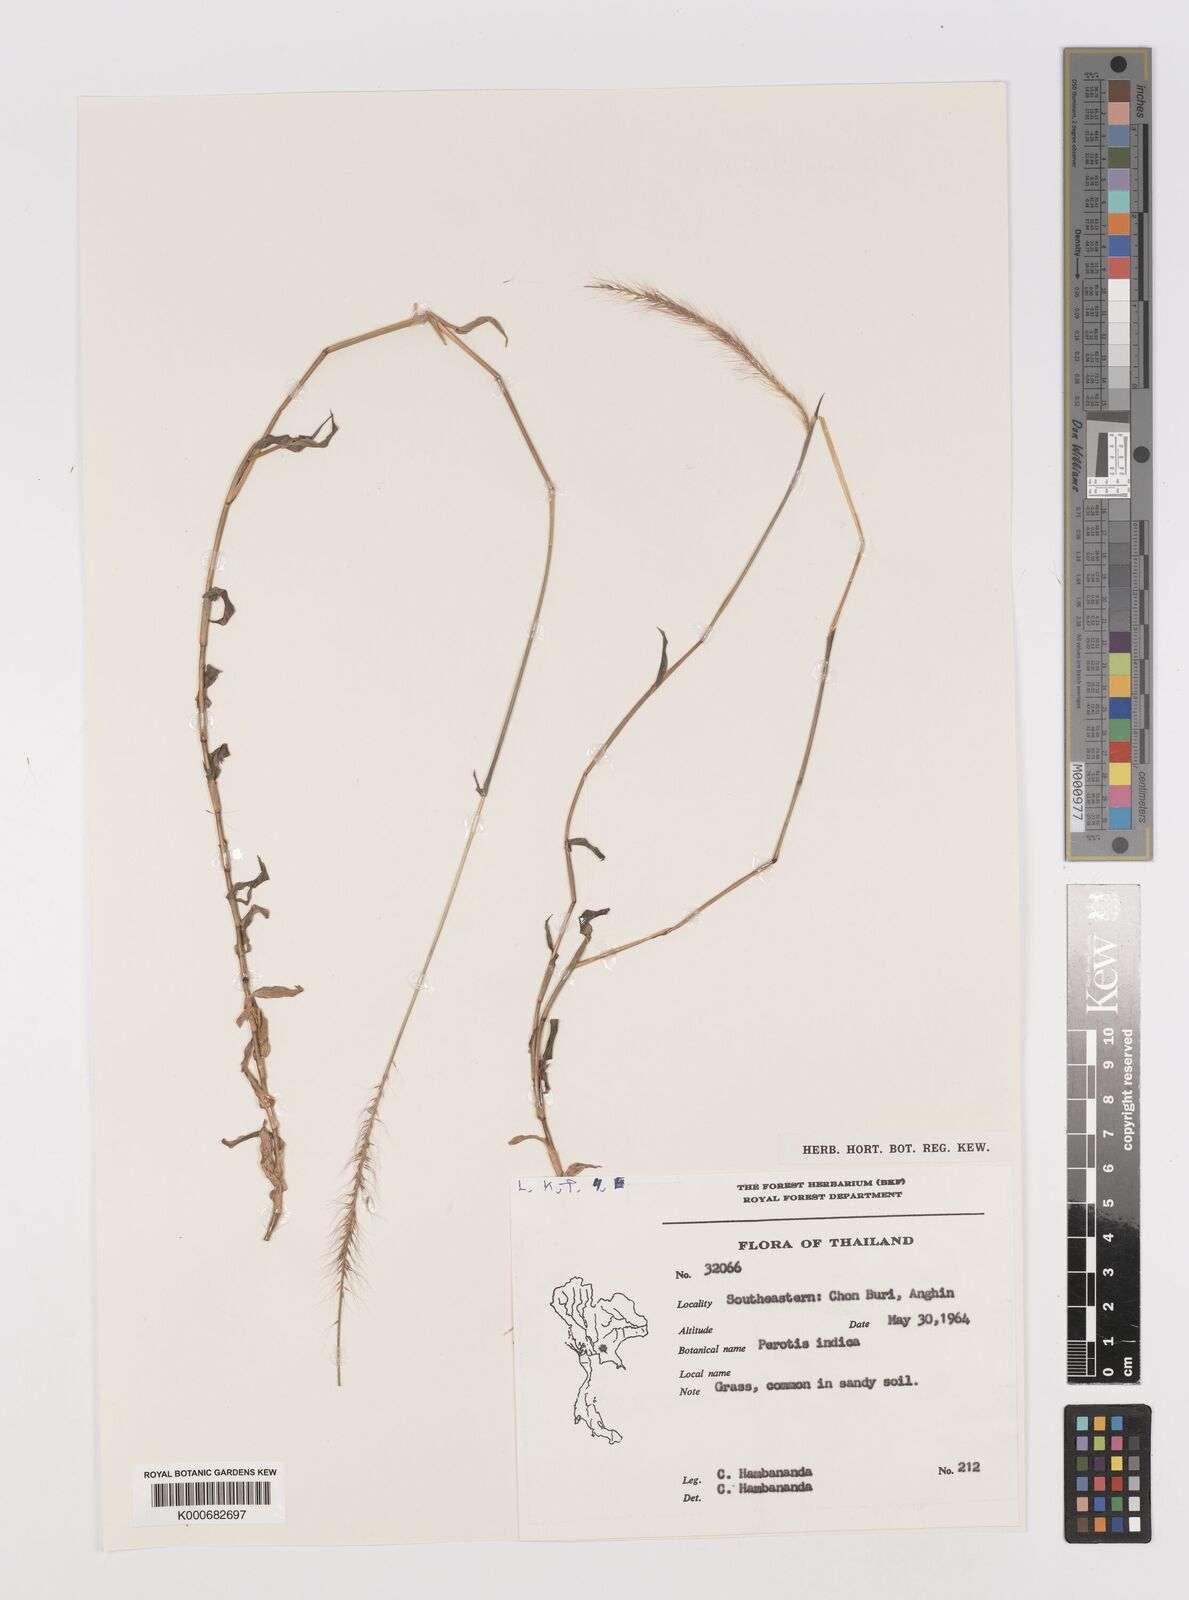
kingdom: Plantae
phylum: Tracheophyta
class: Liliopsida
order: Poales
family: Poaceae
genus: Perotis
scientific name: Perotis indica
